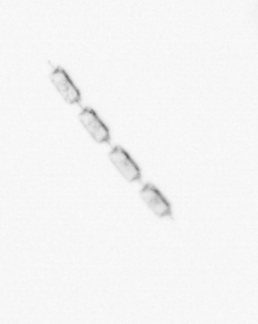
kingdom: Chromista
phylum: Ochrophyta
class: Bacillariophyceae
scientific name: Bacillariophyceae
